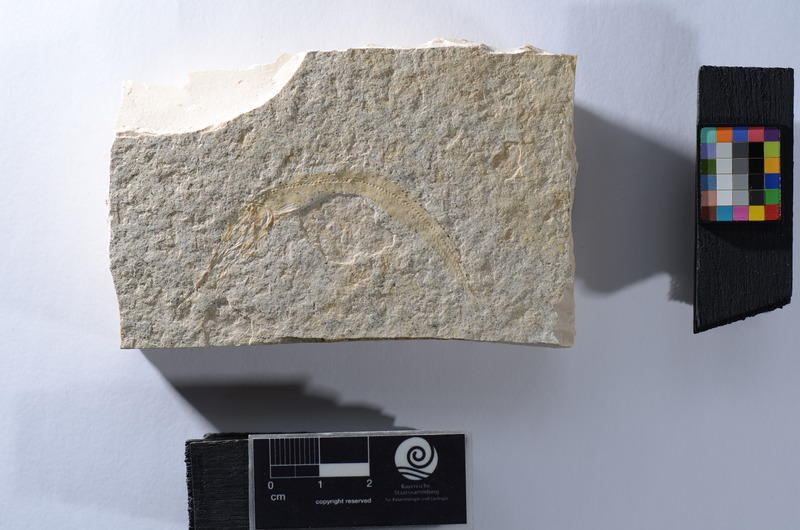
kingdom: Animalia
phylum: Chordata
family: Aspidorhynchidae
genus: Aspidorhynchus
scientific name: Aspidorhynchus
